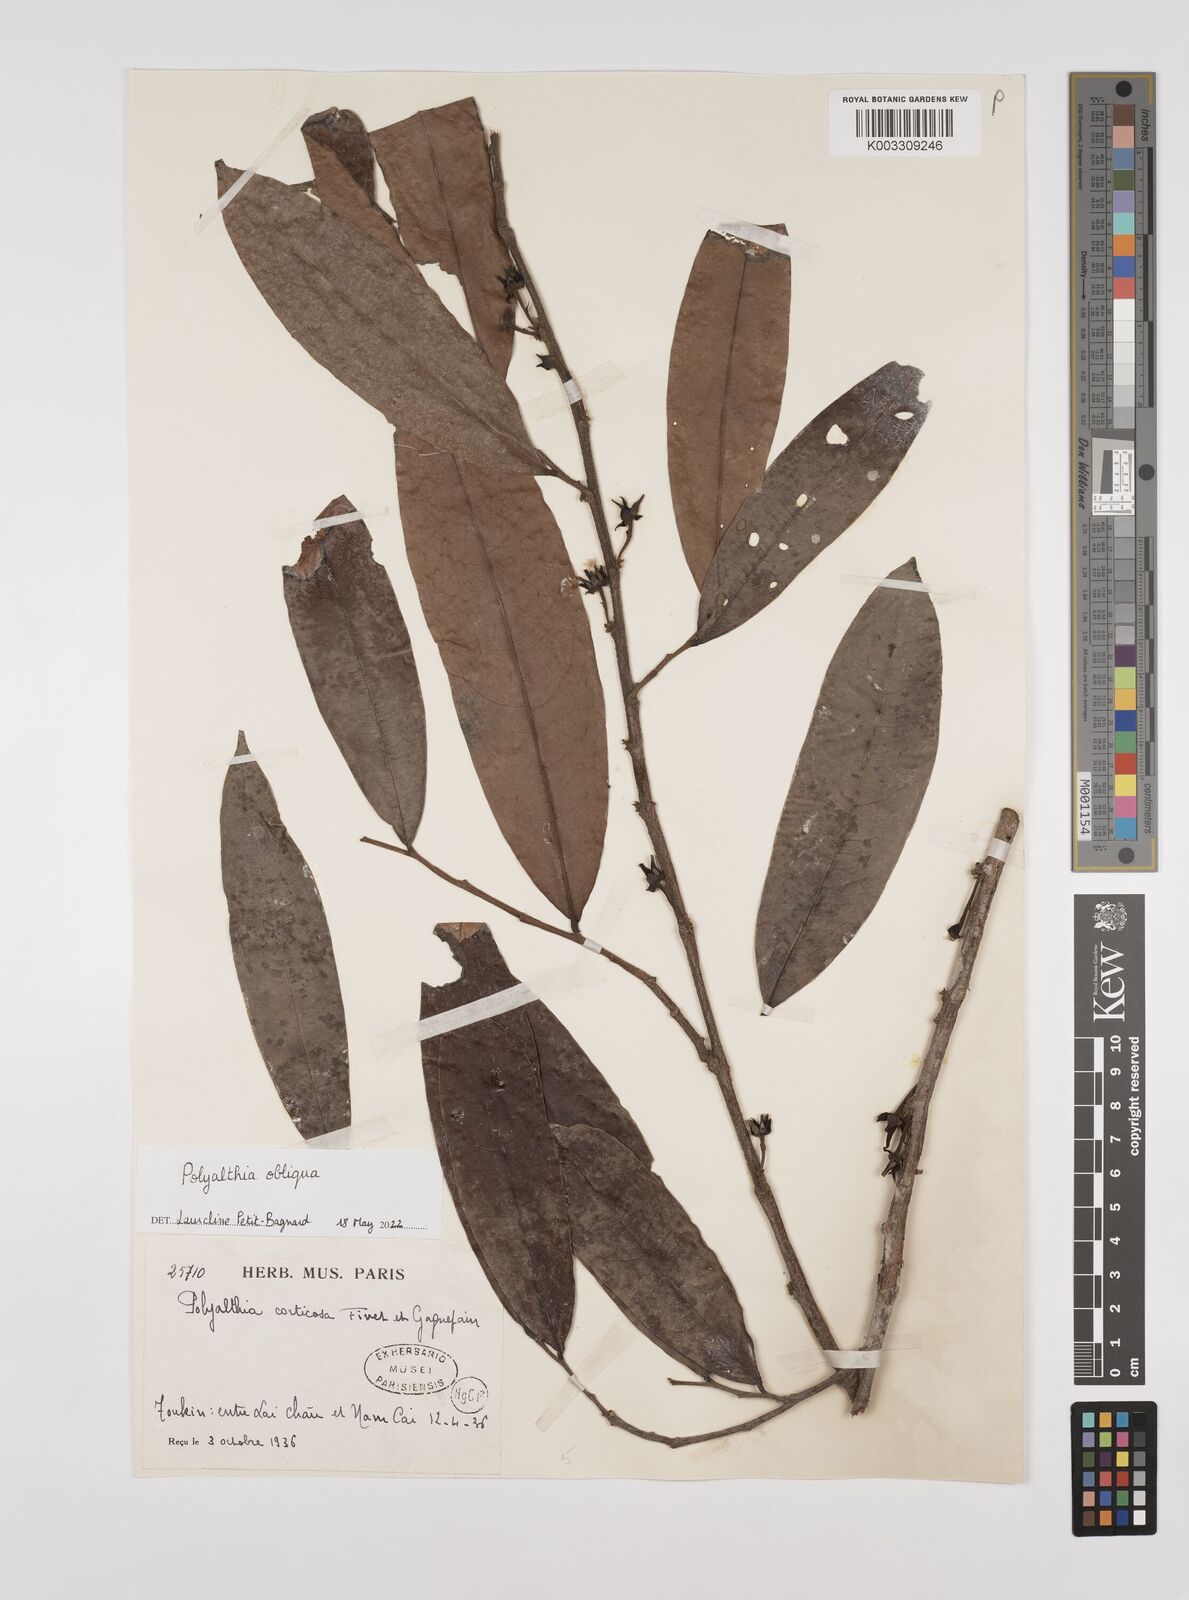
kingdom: Plantae
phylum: Tracheophyta
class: Magnoliopsida
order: Magnoliales
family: Annonaceae
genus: Polyalthia
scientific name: Polyalthia obliqua
